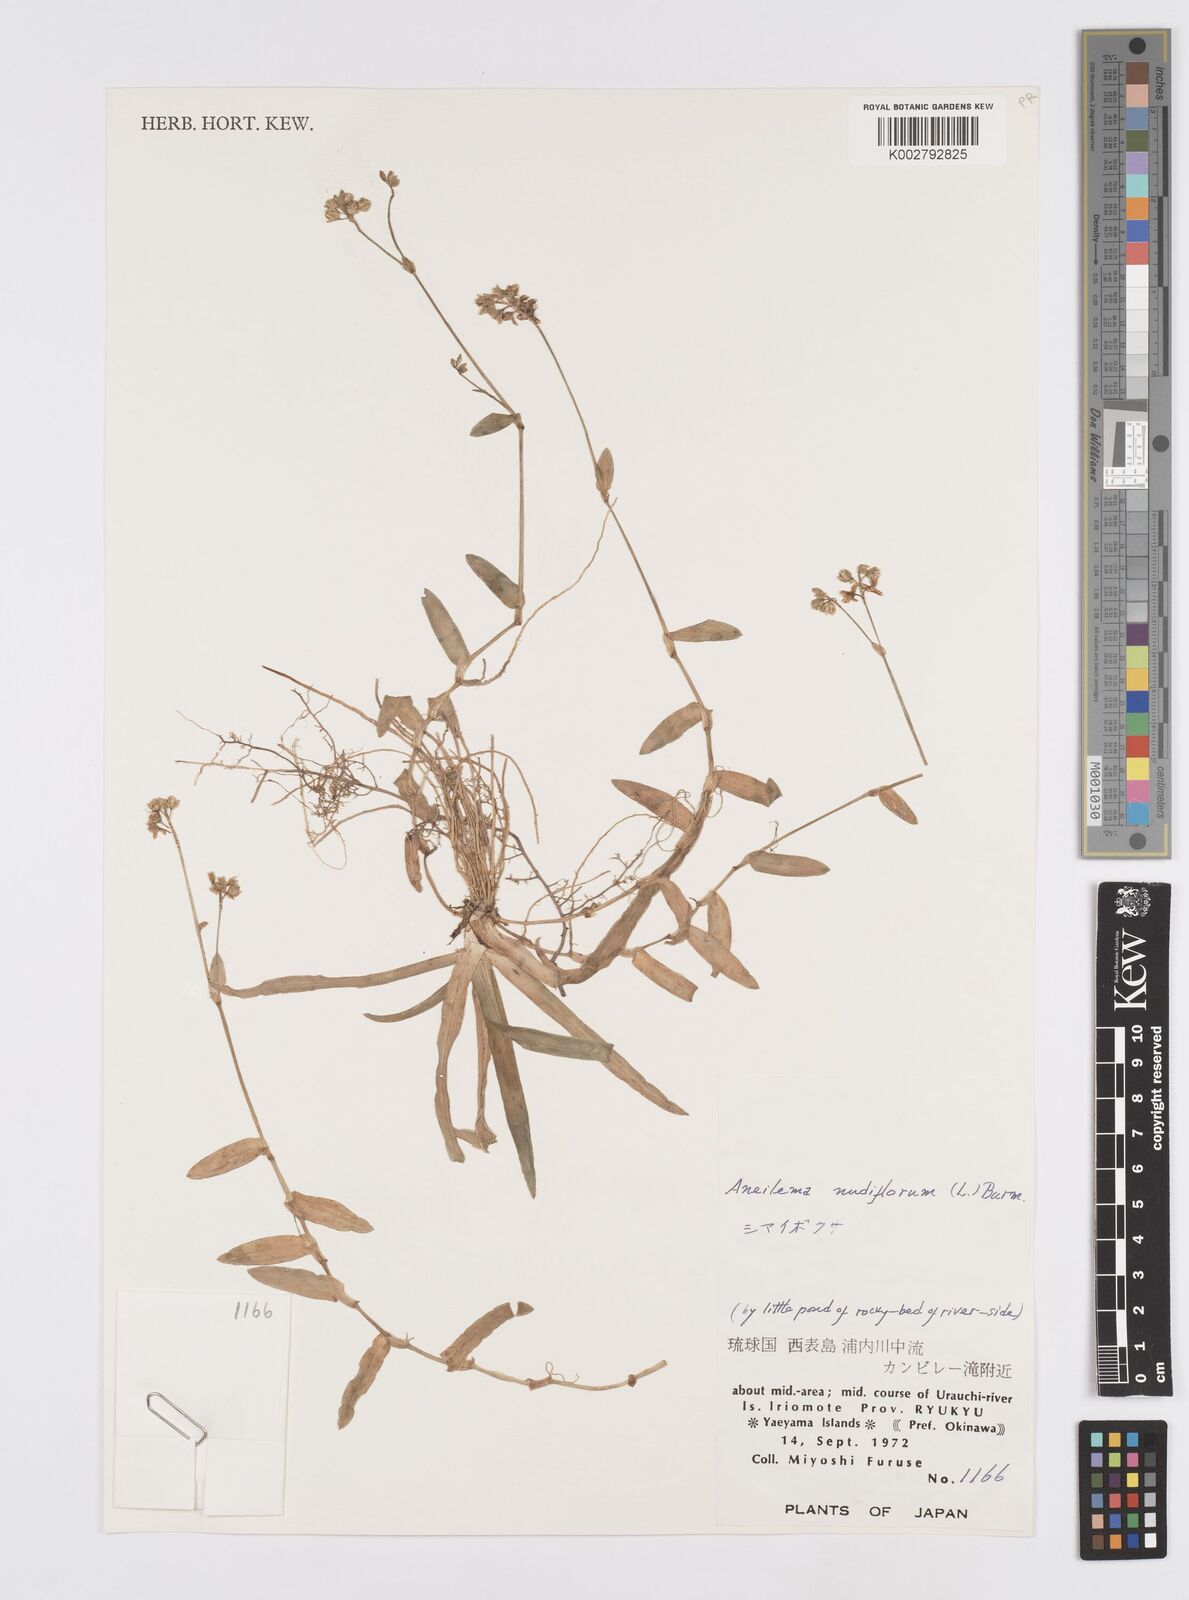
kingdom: Plantae
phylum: Tracheophyta
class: Liliopsida
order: Commelinales
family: Commelinaceae
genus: Murdannia
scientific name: Murdannia nudiflora
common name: Nakedstem dewflower
